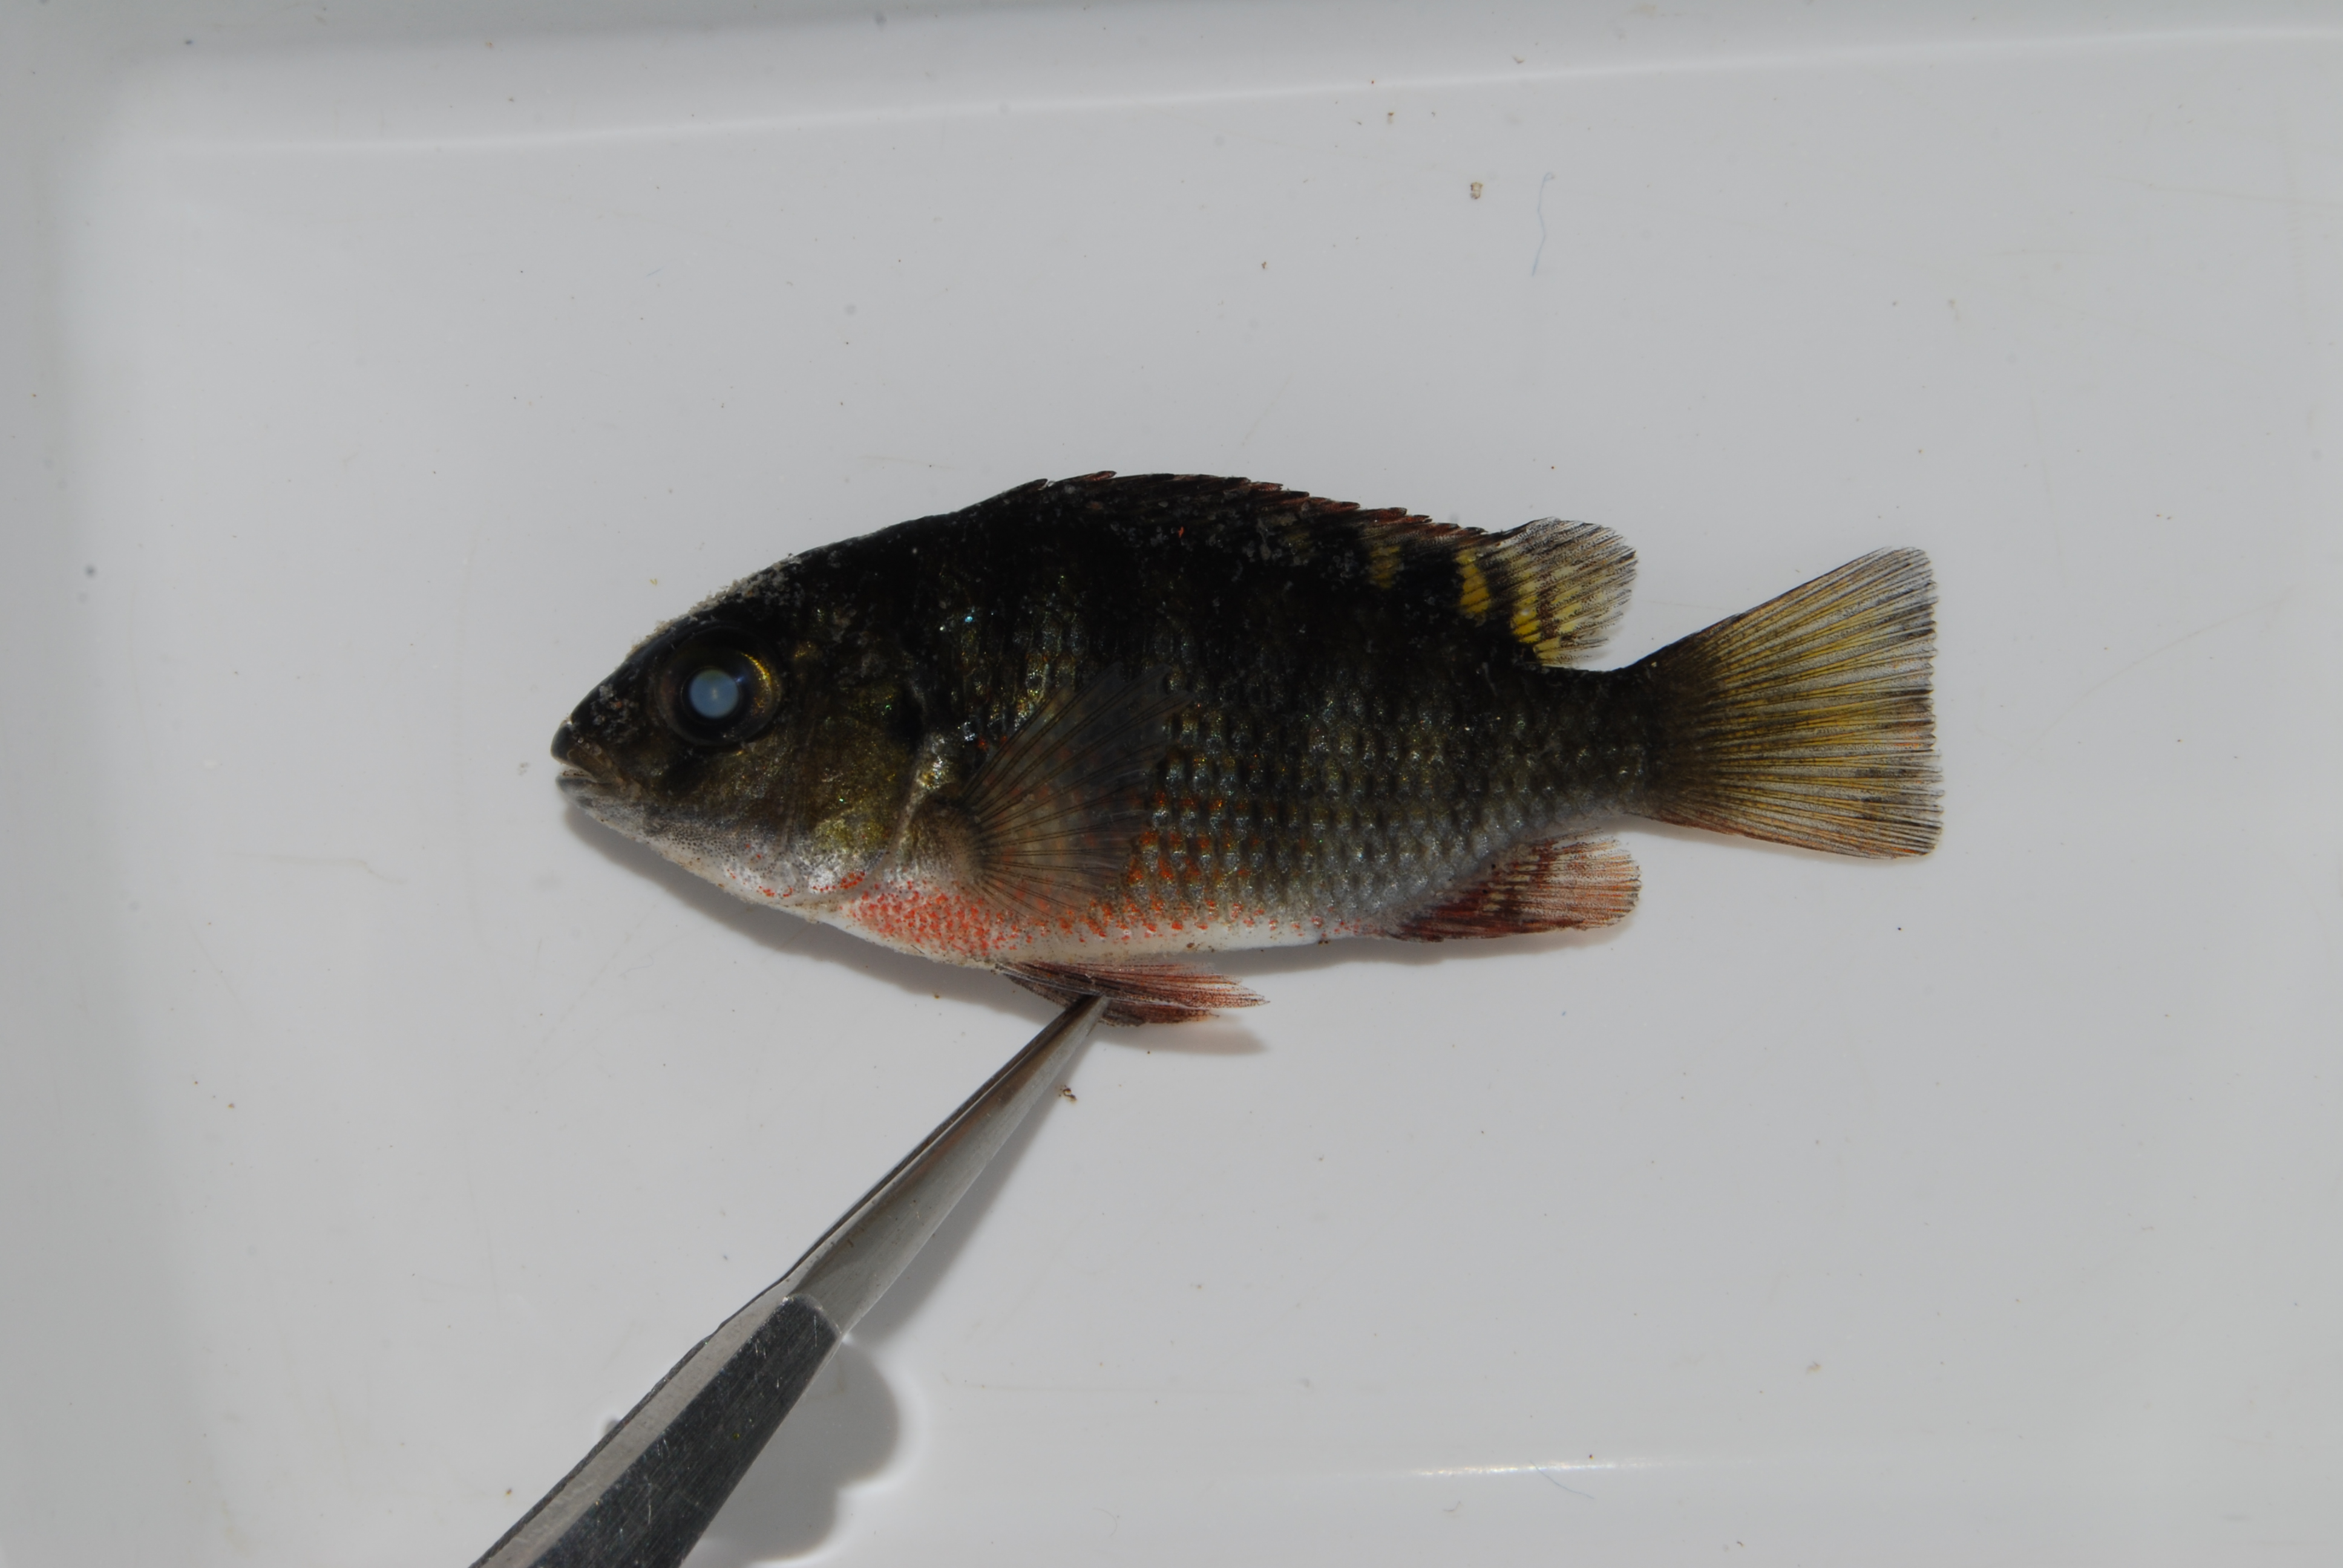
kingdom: Animalia
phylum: Chordata
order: Perciformes
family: Cichlidae
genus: Tilapia
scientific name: Tilapia sparrmanii
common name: Banded tilapia
